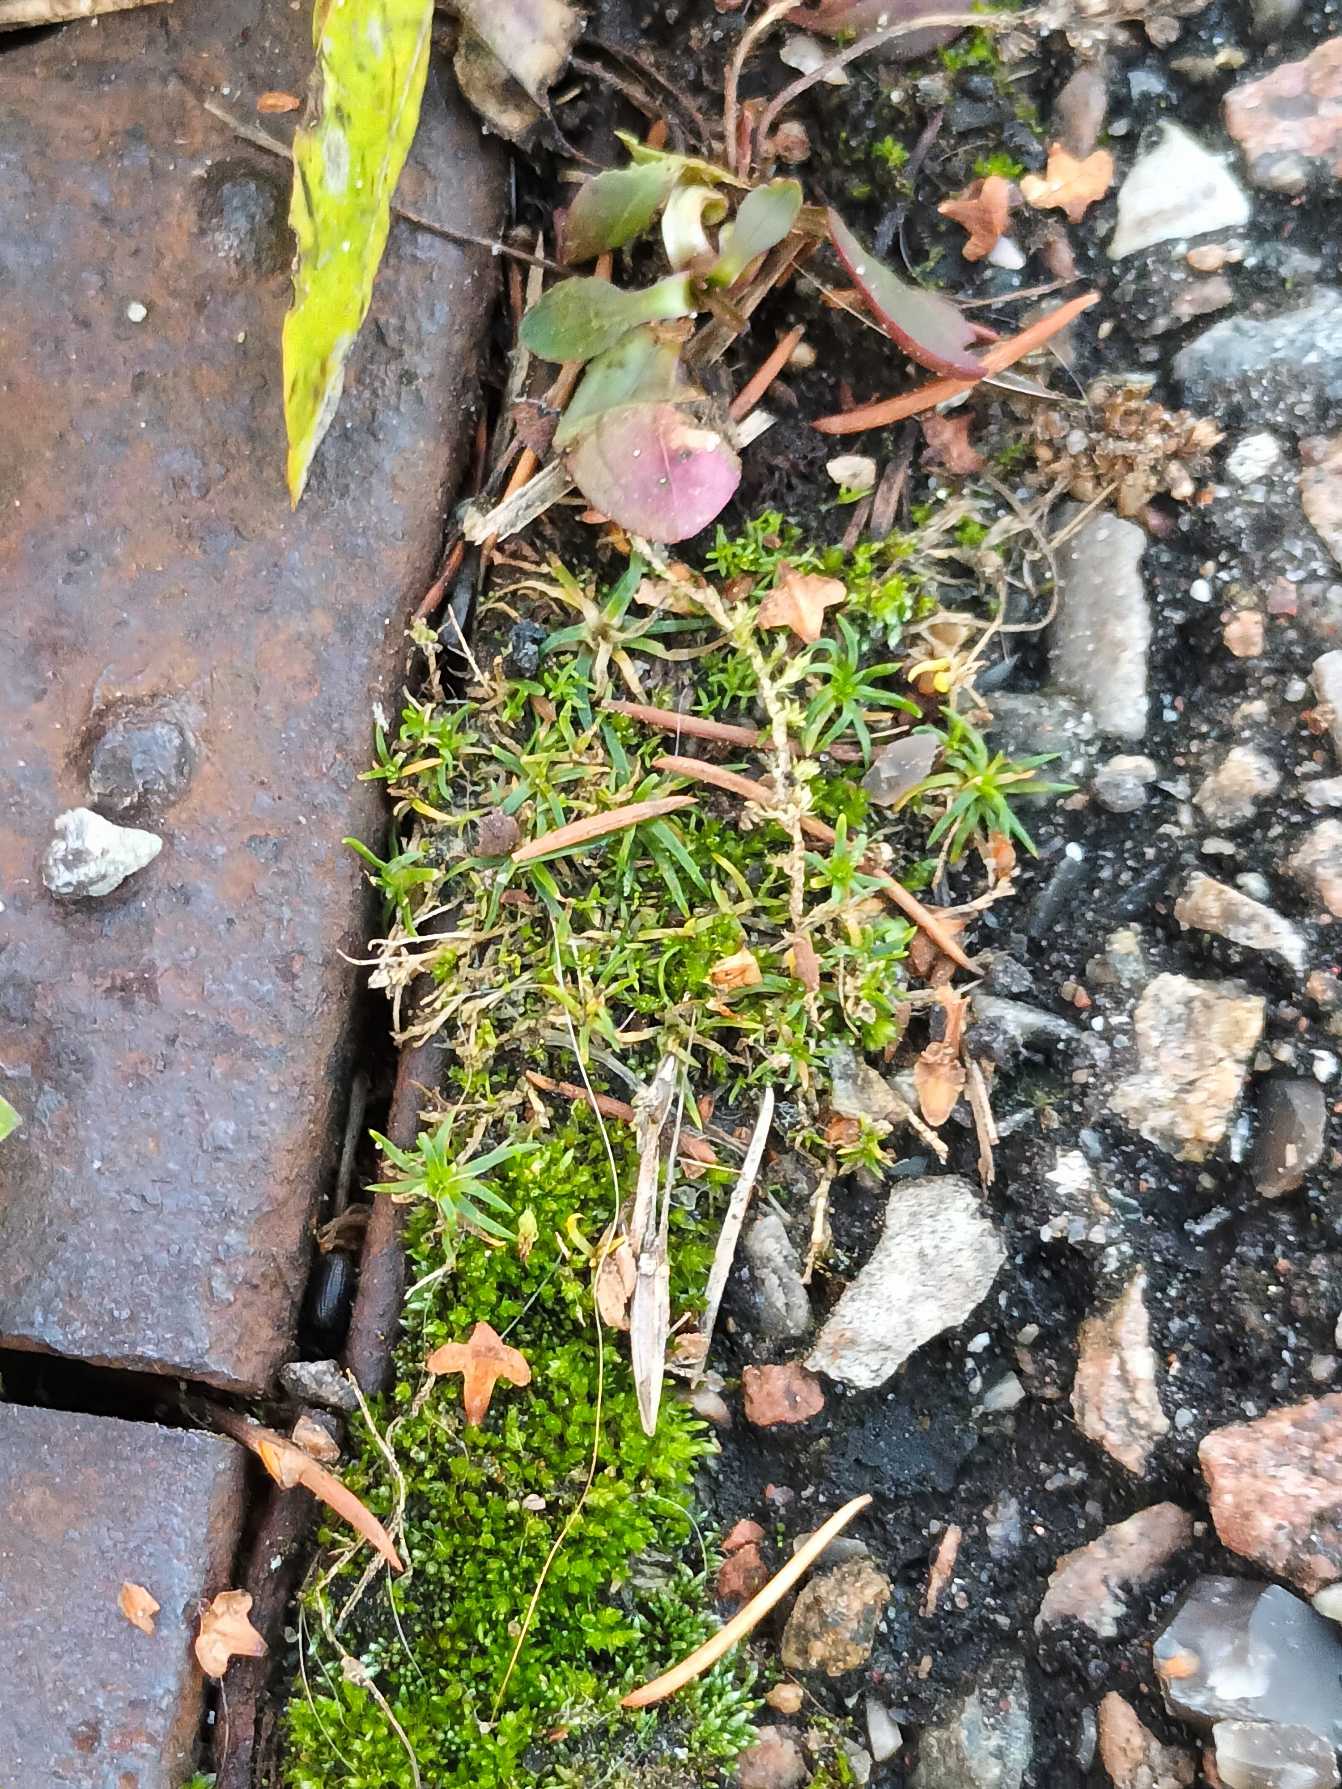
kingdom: Plantae
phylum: Tracheophyta
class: Magnoliopsida
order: Caryophyllales
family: Caryophyllaceae
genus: Sagina
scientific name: Sagina procumbens
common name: Almindelig firling
